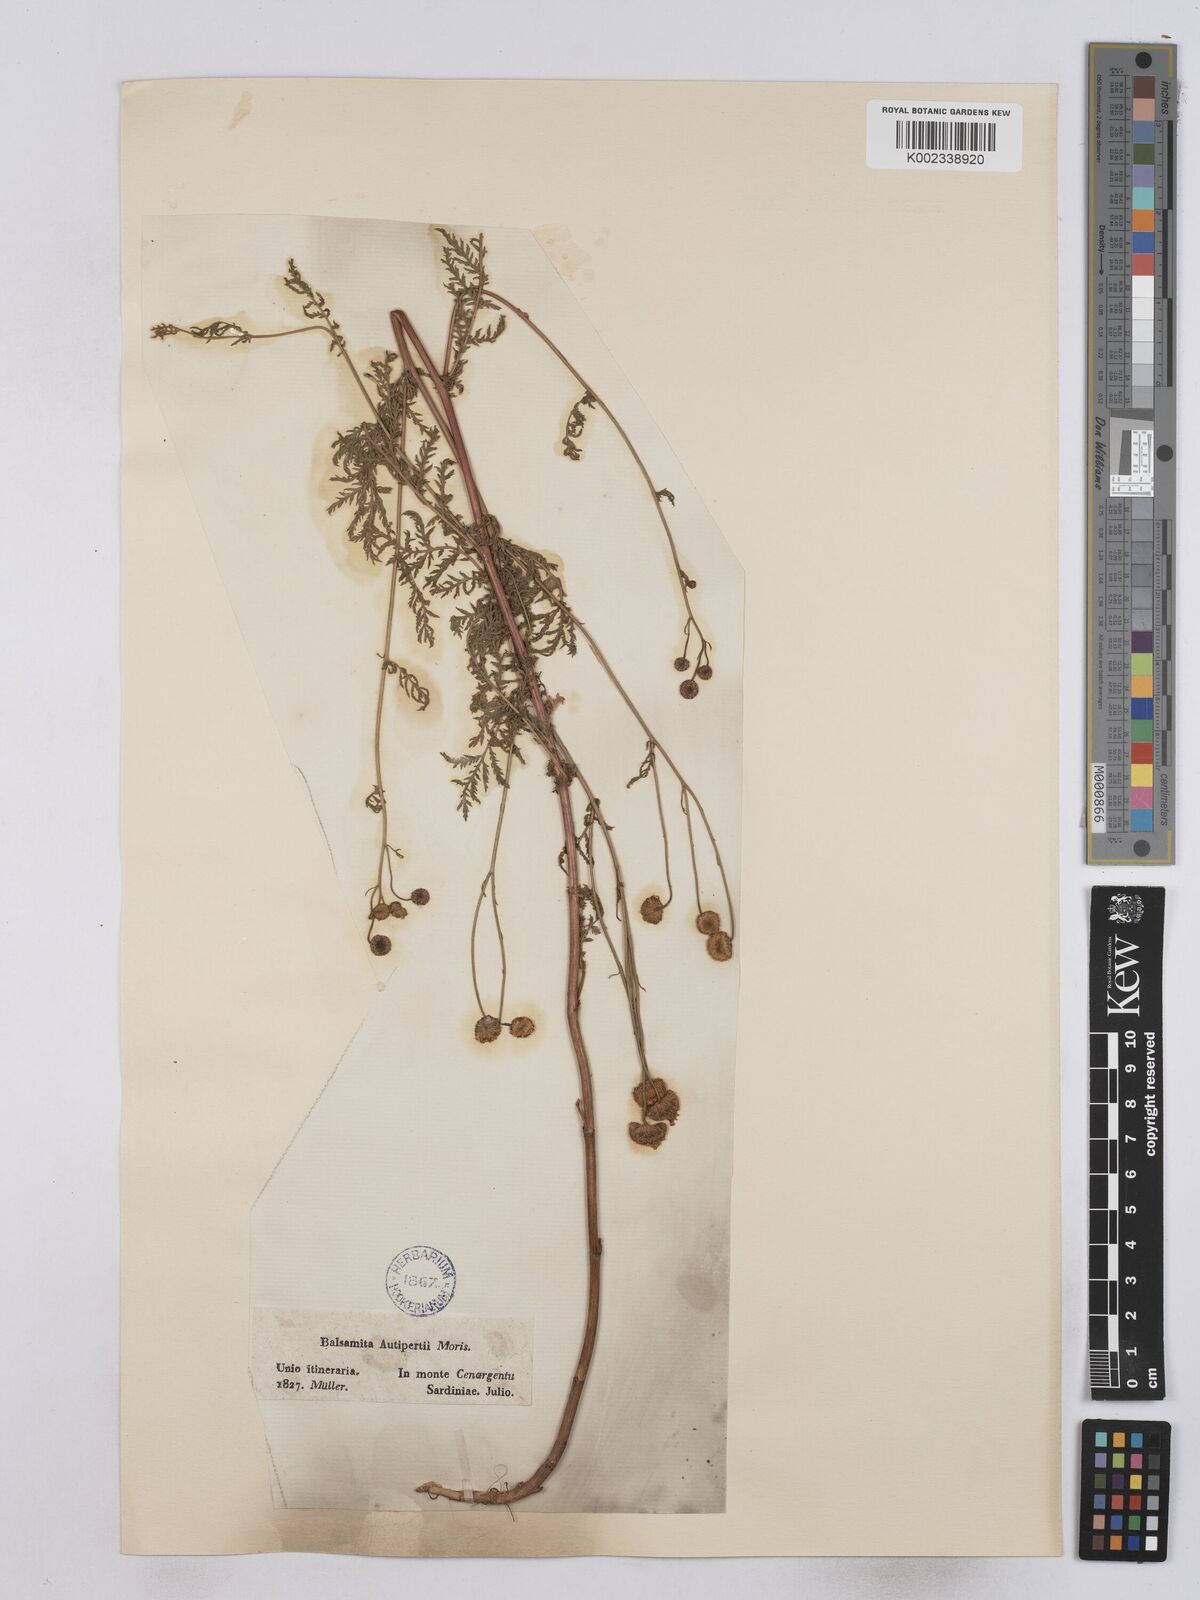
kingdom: Plantae
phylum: Tracheophyta
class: Magnoliopsida
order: Asterales
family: Asteraceae
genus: Tanacetum
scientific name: Tanacetum audibertii
